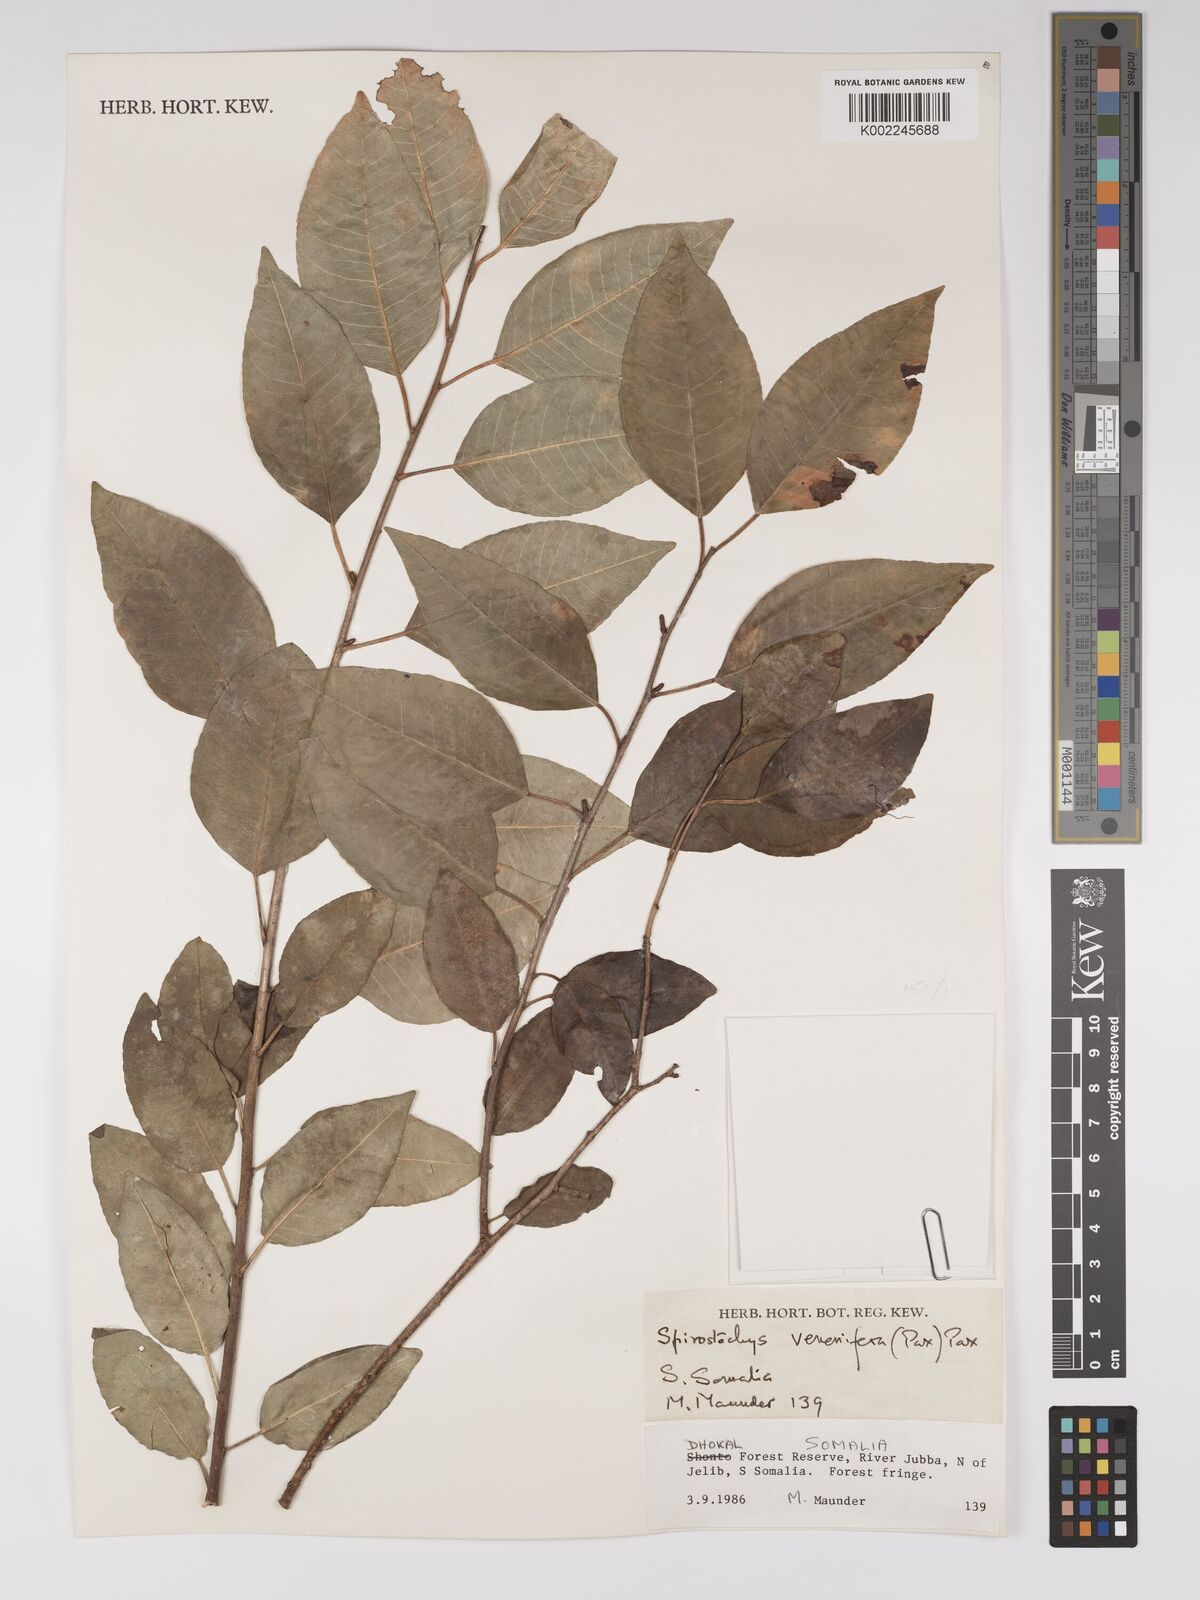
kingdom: Plantae
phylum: Tracheophyta
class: Magnoliopsida
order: Malpighiales
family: Euphorbiaceae
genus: Spirostachys
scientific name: Spirostachys venenifera
